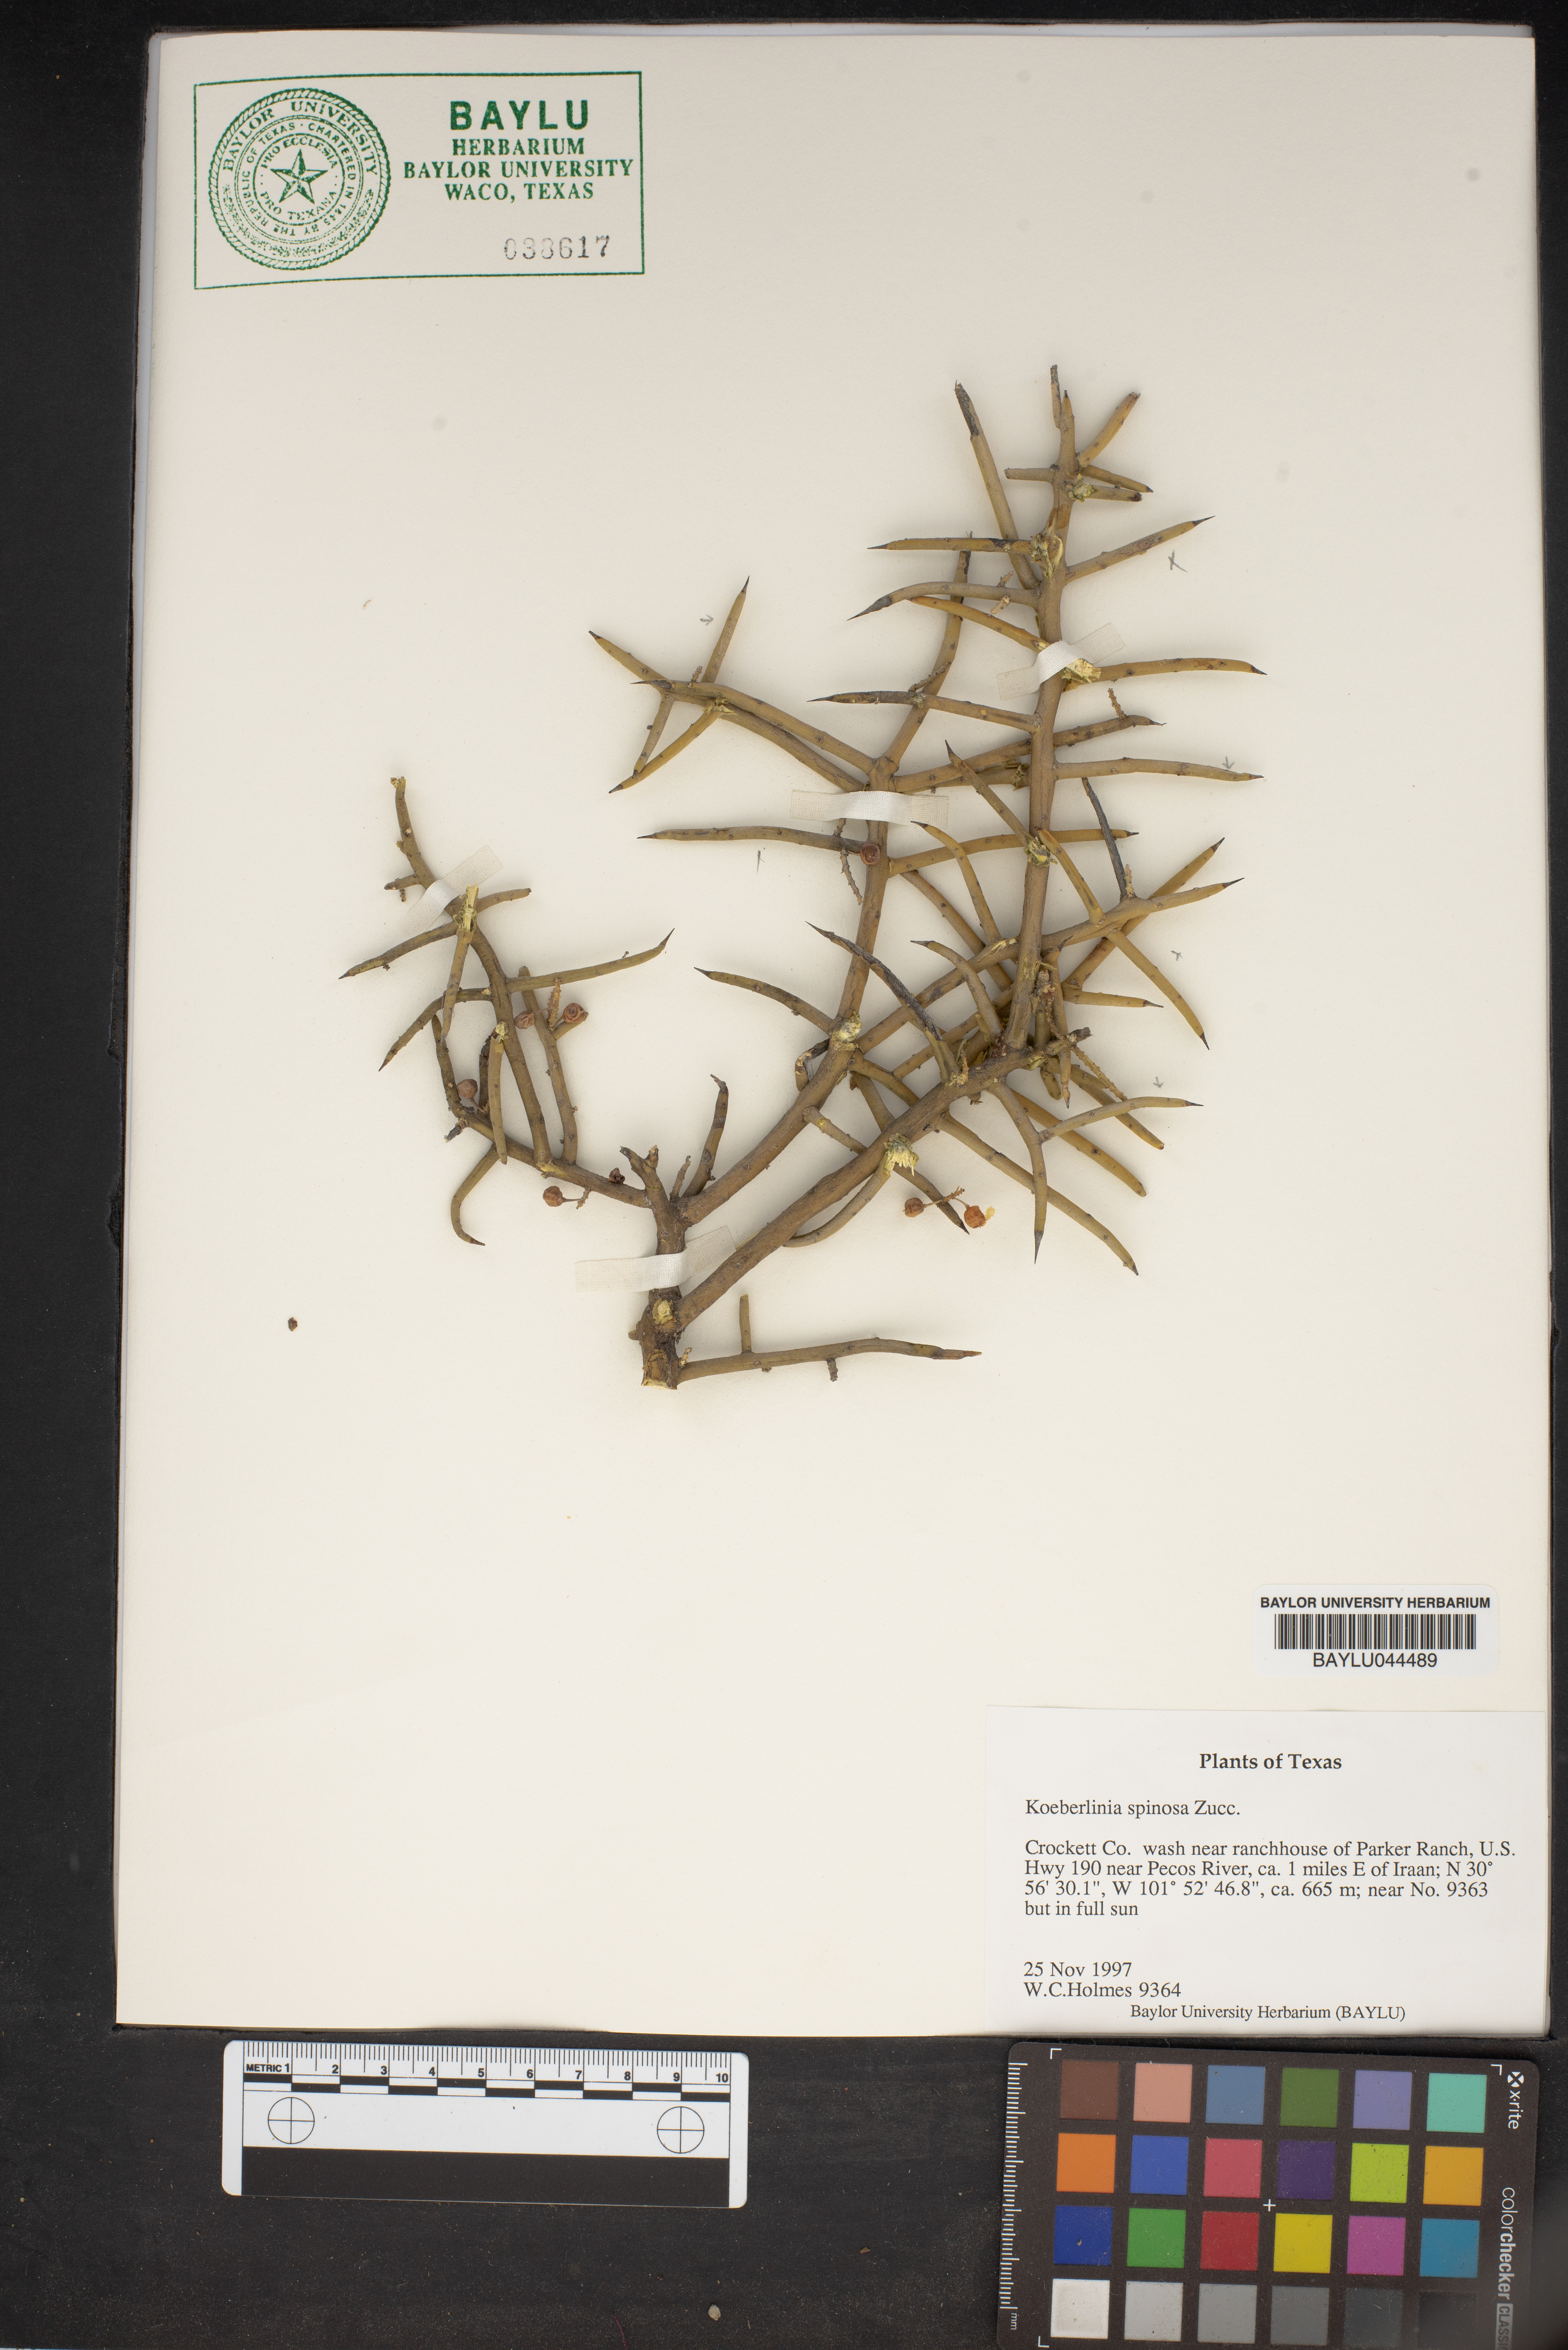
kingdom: Plantae
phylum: Tracheophyta
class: Magnoliopsida
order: Brassicales
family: Koeberliniaceae
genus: Koeberlinia
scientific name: Koeberlinia spinosa
